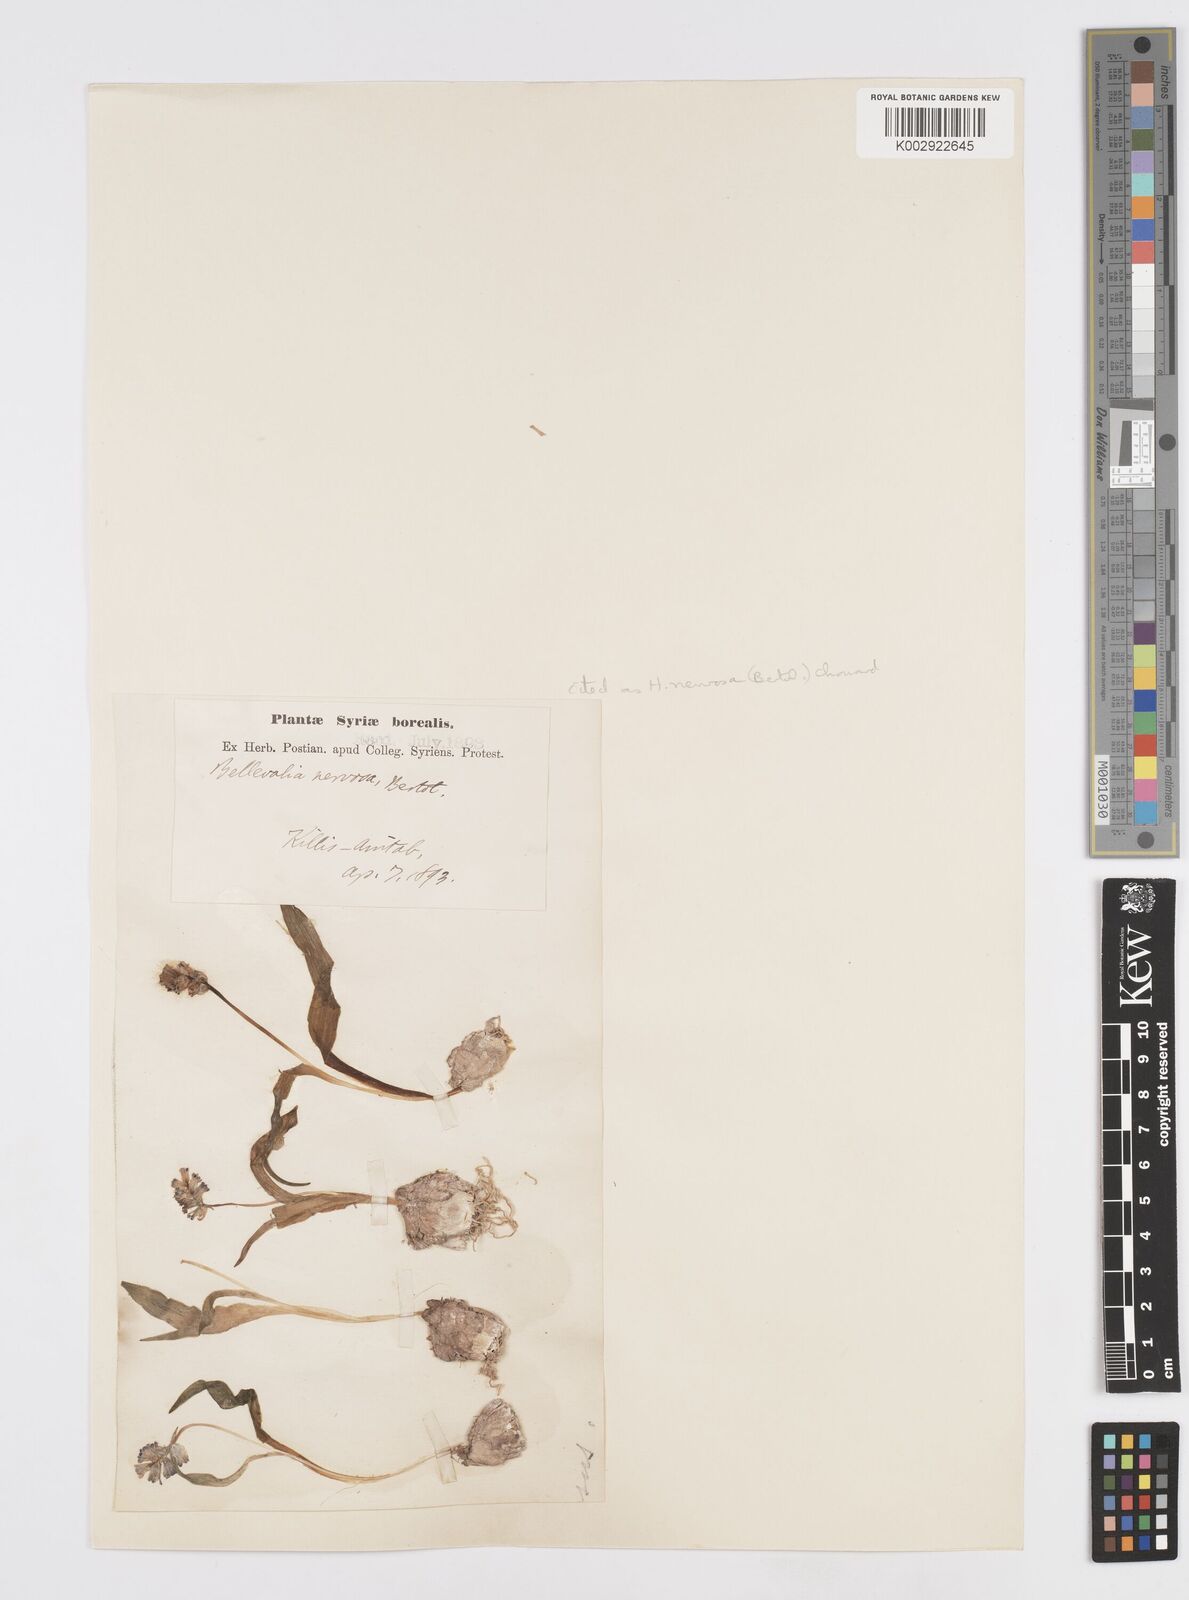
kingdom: Plantae
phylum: Tracheophyta
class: Liliopsida
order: Asparagales
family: Asparagaceae
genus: Hyacinthella
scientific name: Hyacinthella nervosa
